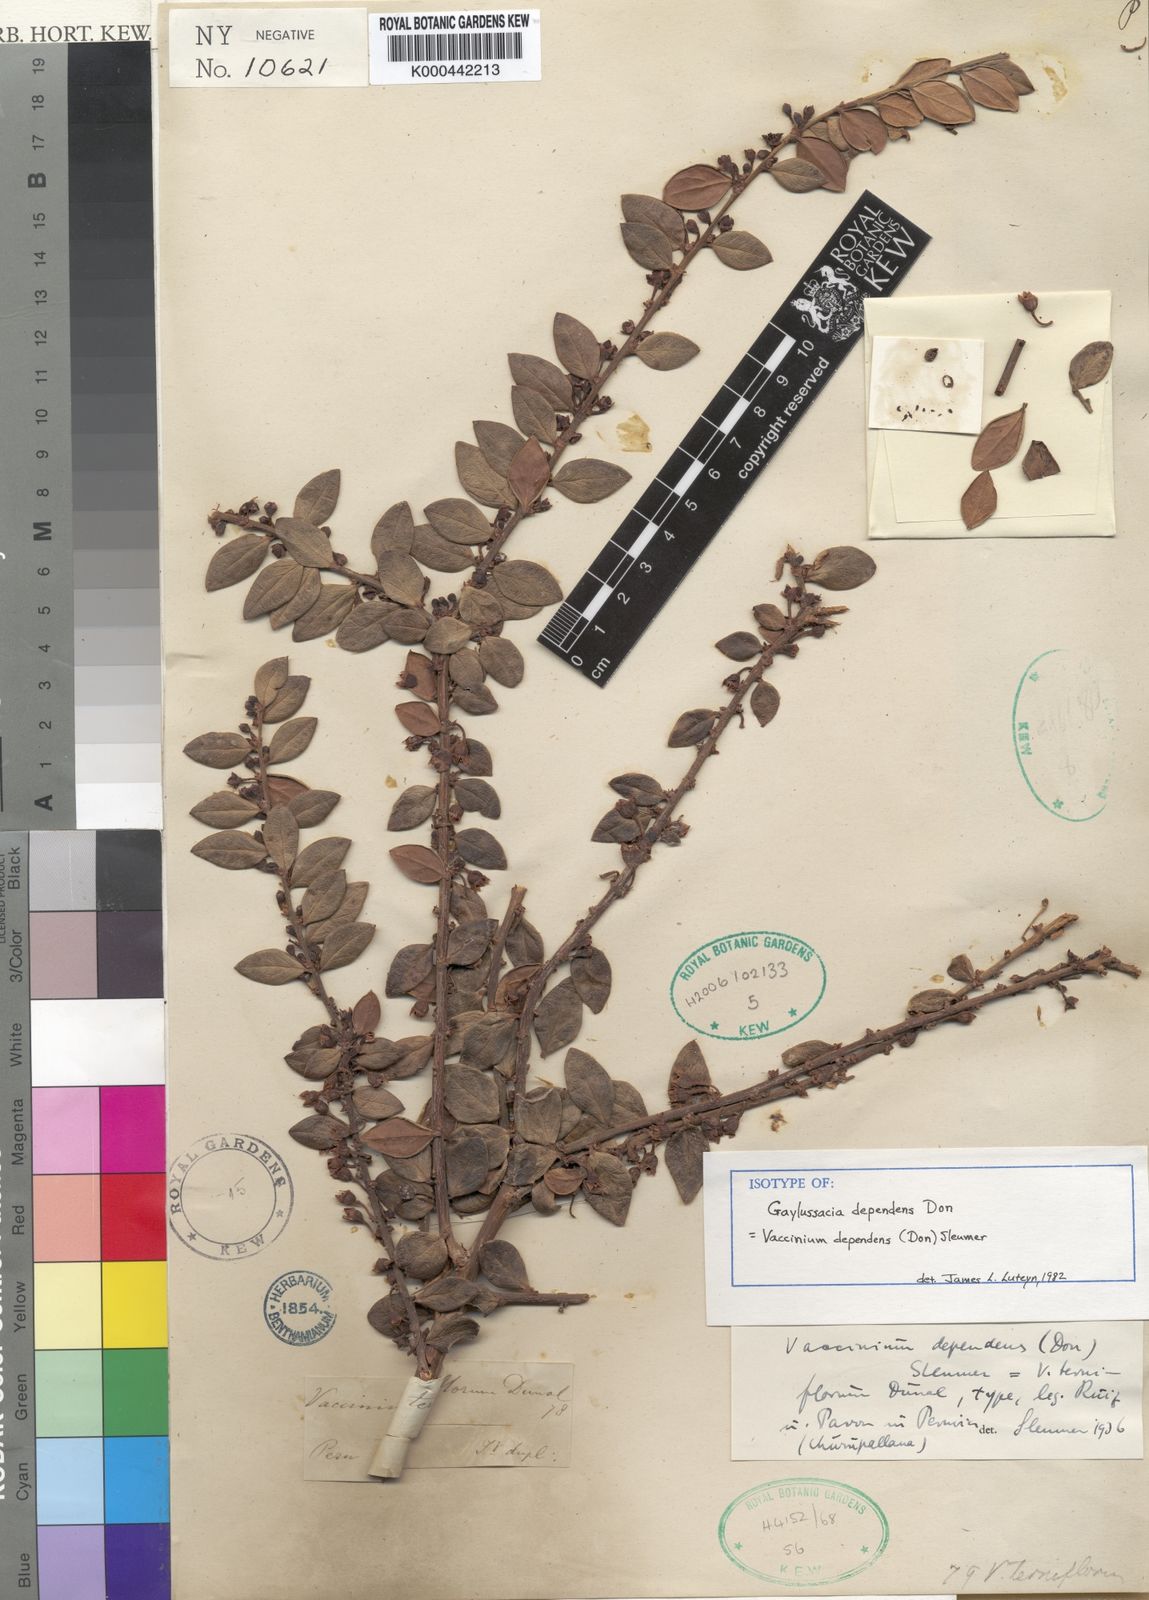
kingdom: Plantae
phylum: Tracheophyta
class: Magnoliopsida
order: Ericales
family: Ericaceae
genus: Vaccinium
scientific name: Vaccinium dependens
